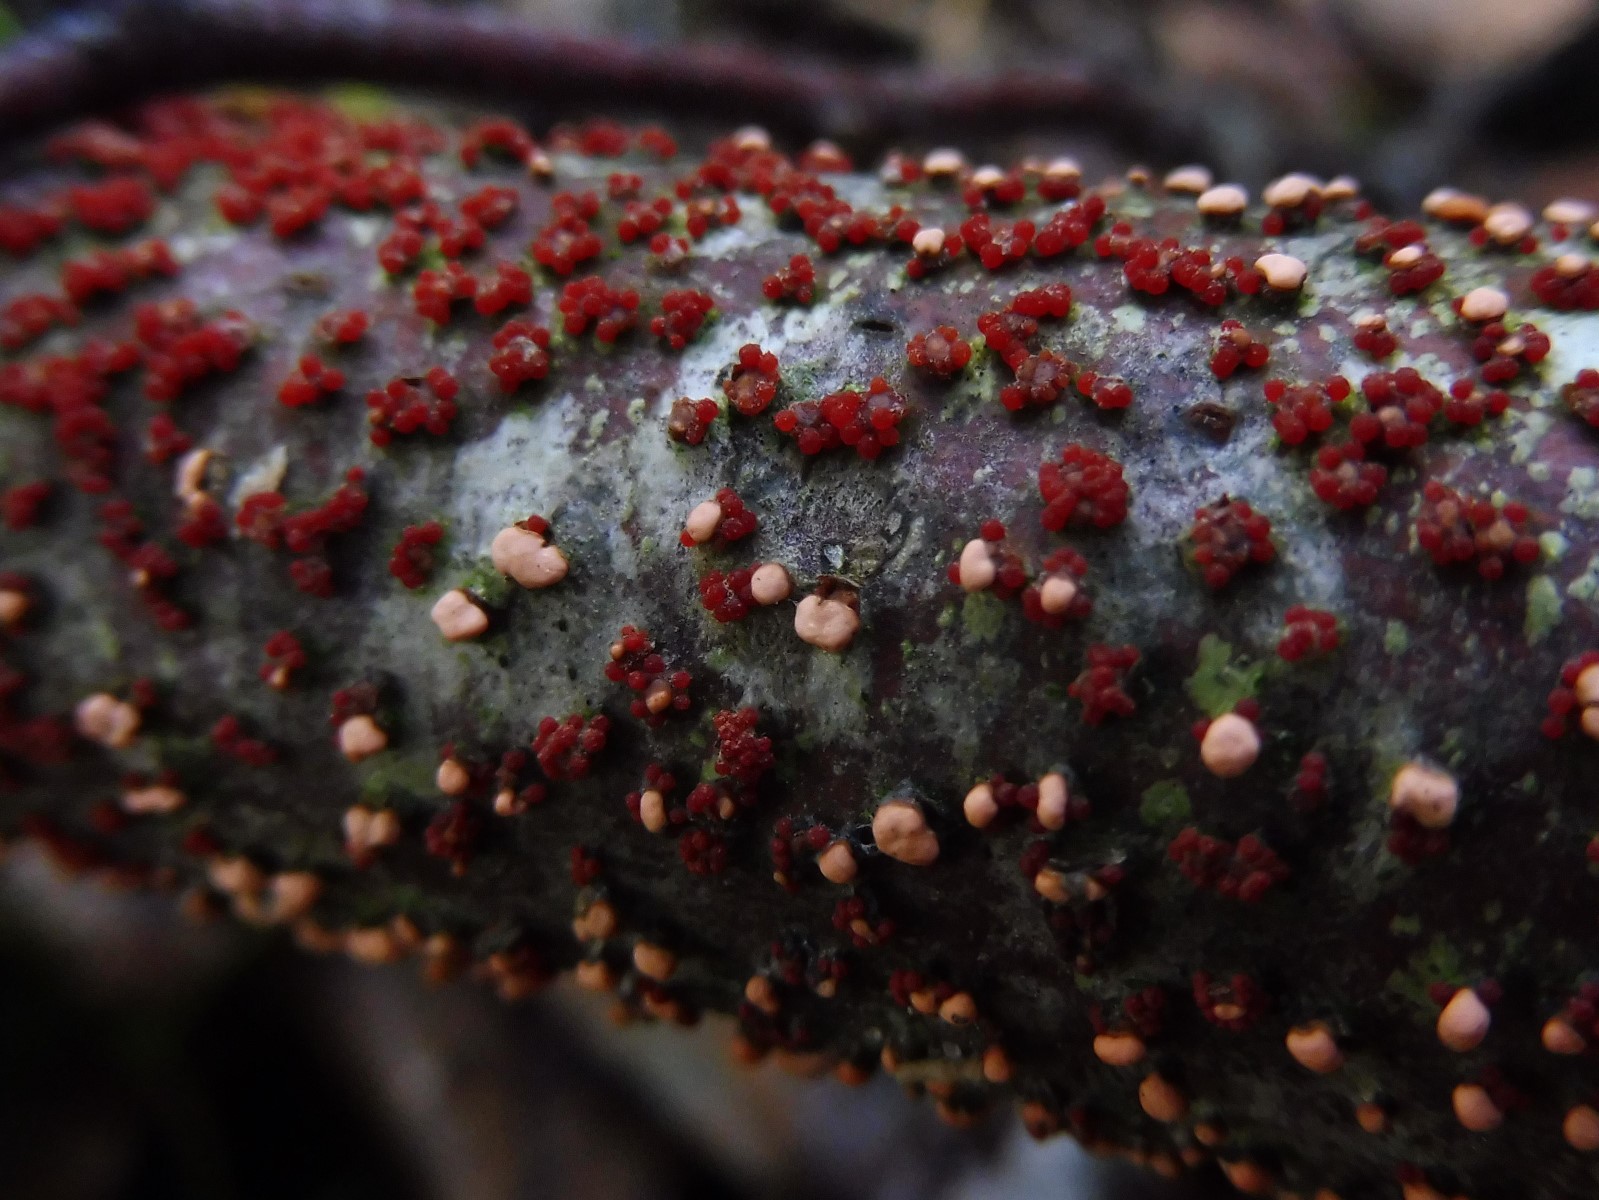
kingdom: Fungi
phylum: Ascomycota
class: Sordariomycetes
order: Hypocreales
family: Nectriaceae
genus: Nectria
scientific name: Nectria cinnabarina
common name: almindelig cinnobersvamp
